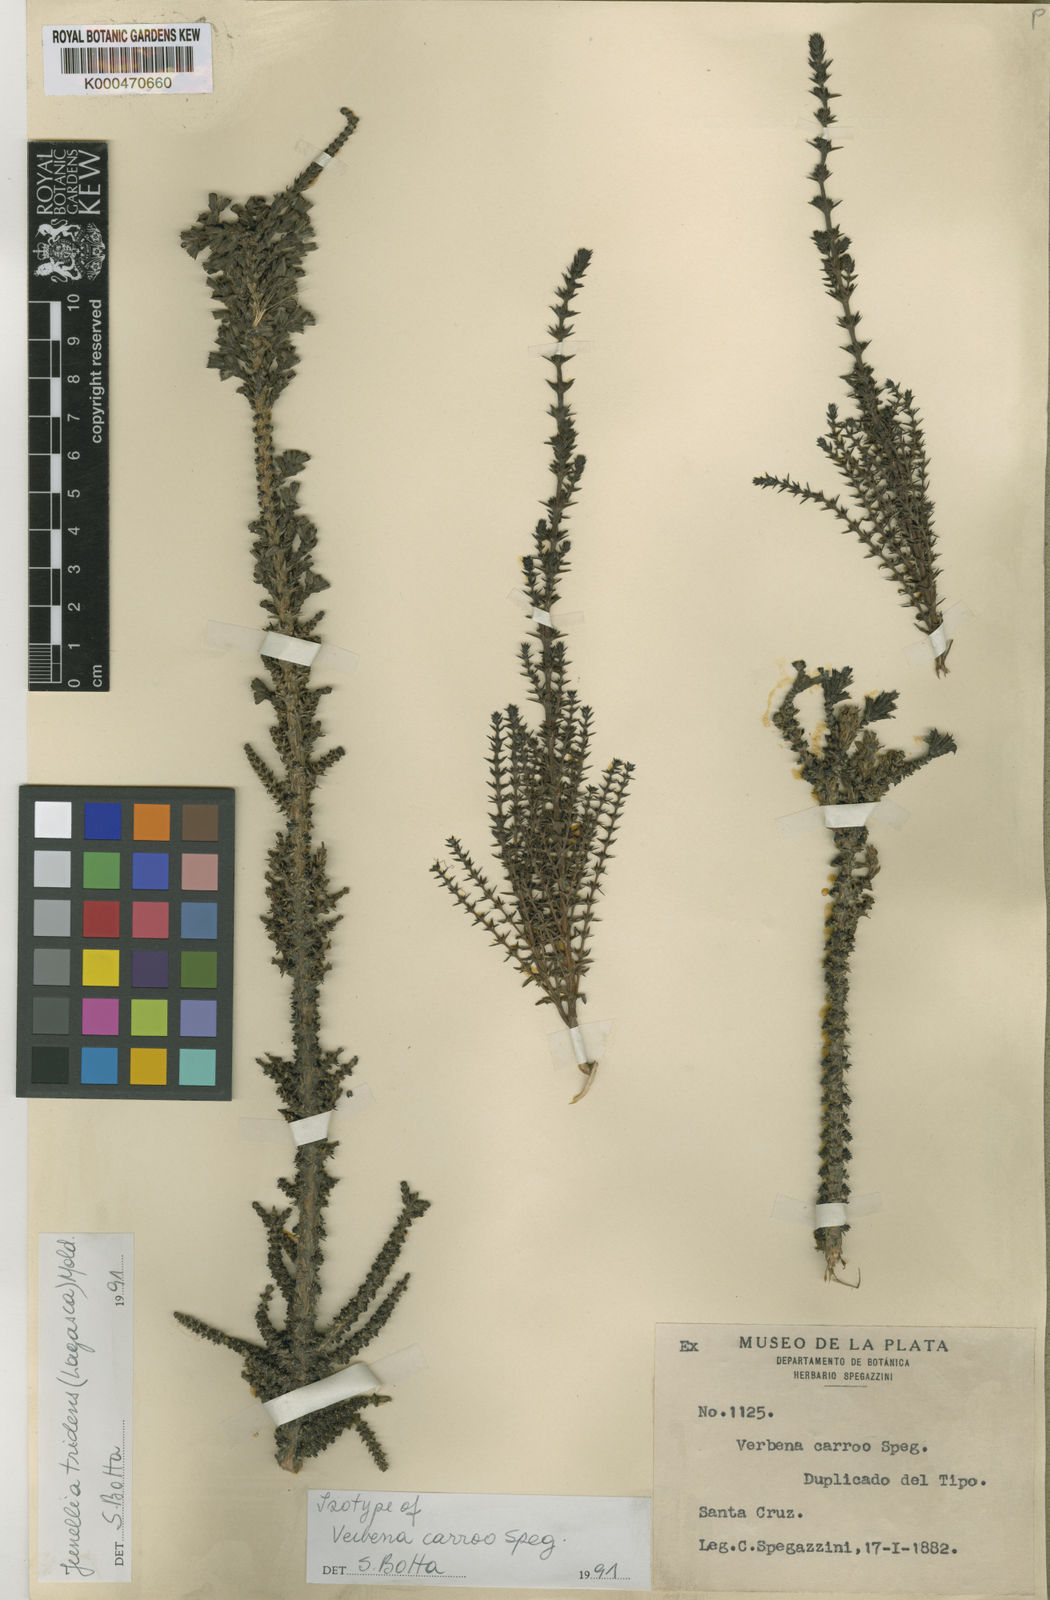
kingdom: Plantae
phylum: Tracheophyta
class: Magnoliopsida
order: Lamiales
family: Verbenaceae
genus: Mulguraea
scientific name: Mulguraea tridens
